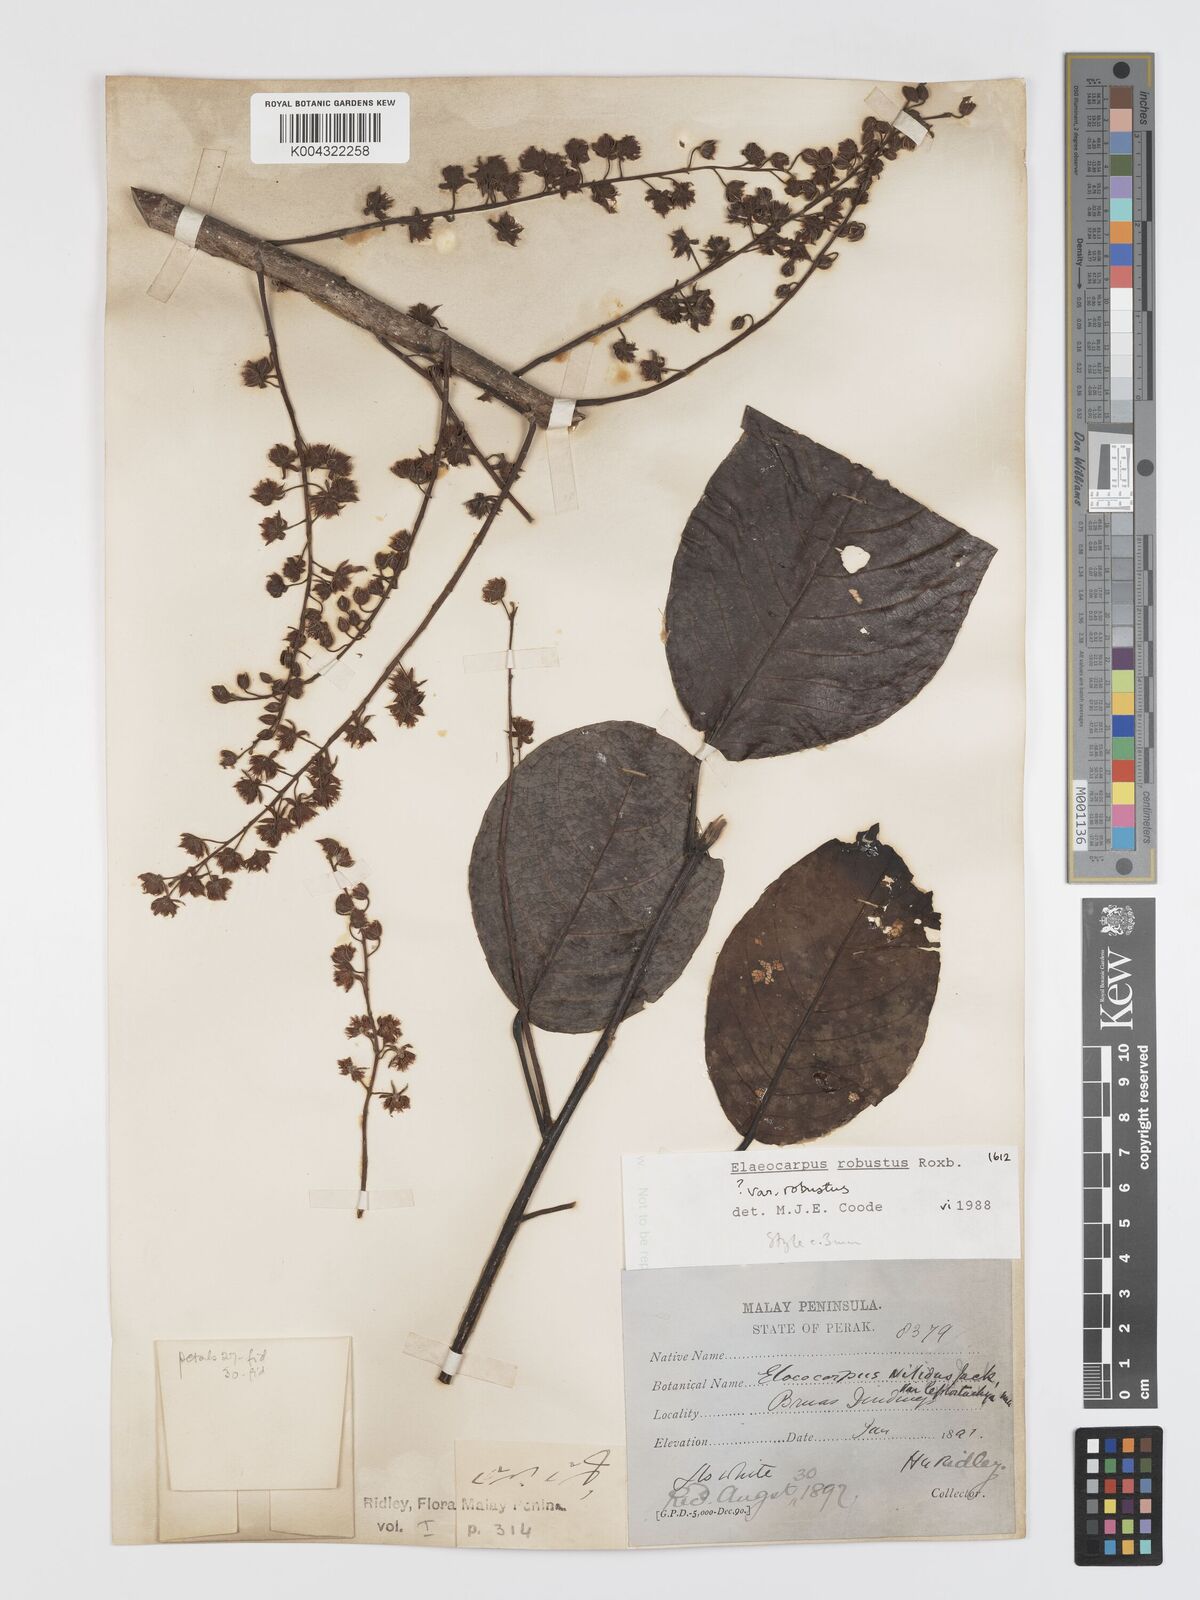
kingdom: Plantae
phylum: Tracheophyta
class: Magnoliopsida
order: Oxalidales
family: Elaeocarpaceae
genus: Elaeocarpus
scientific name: Elaeocarpus robustus
